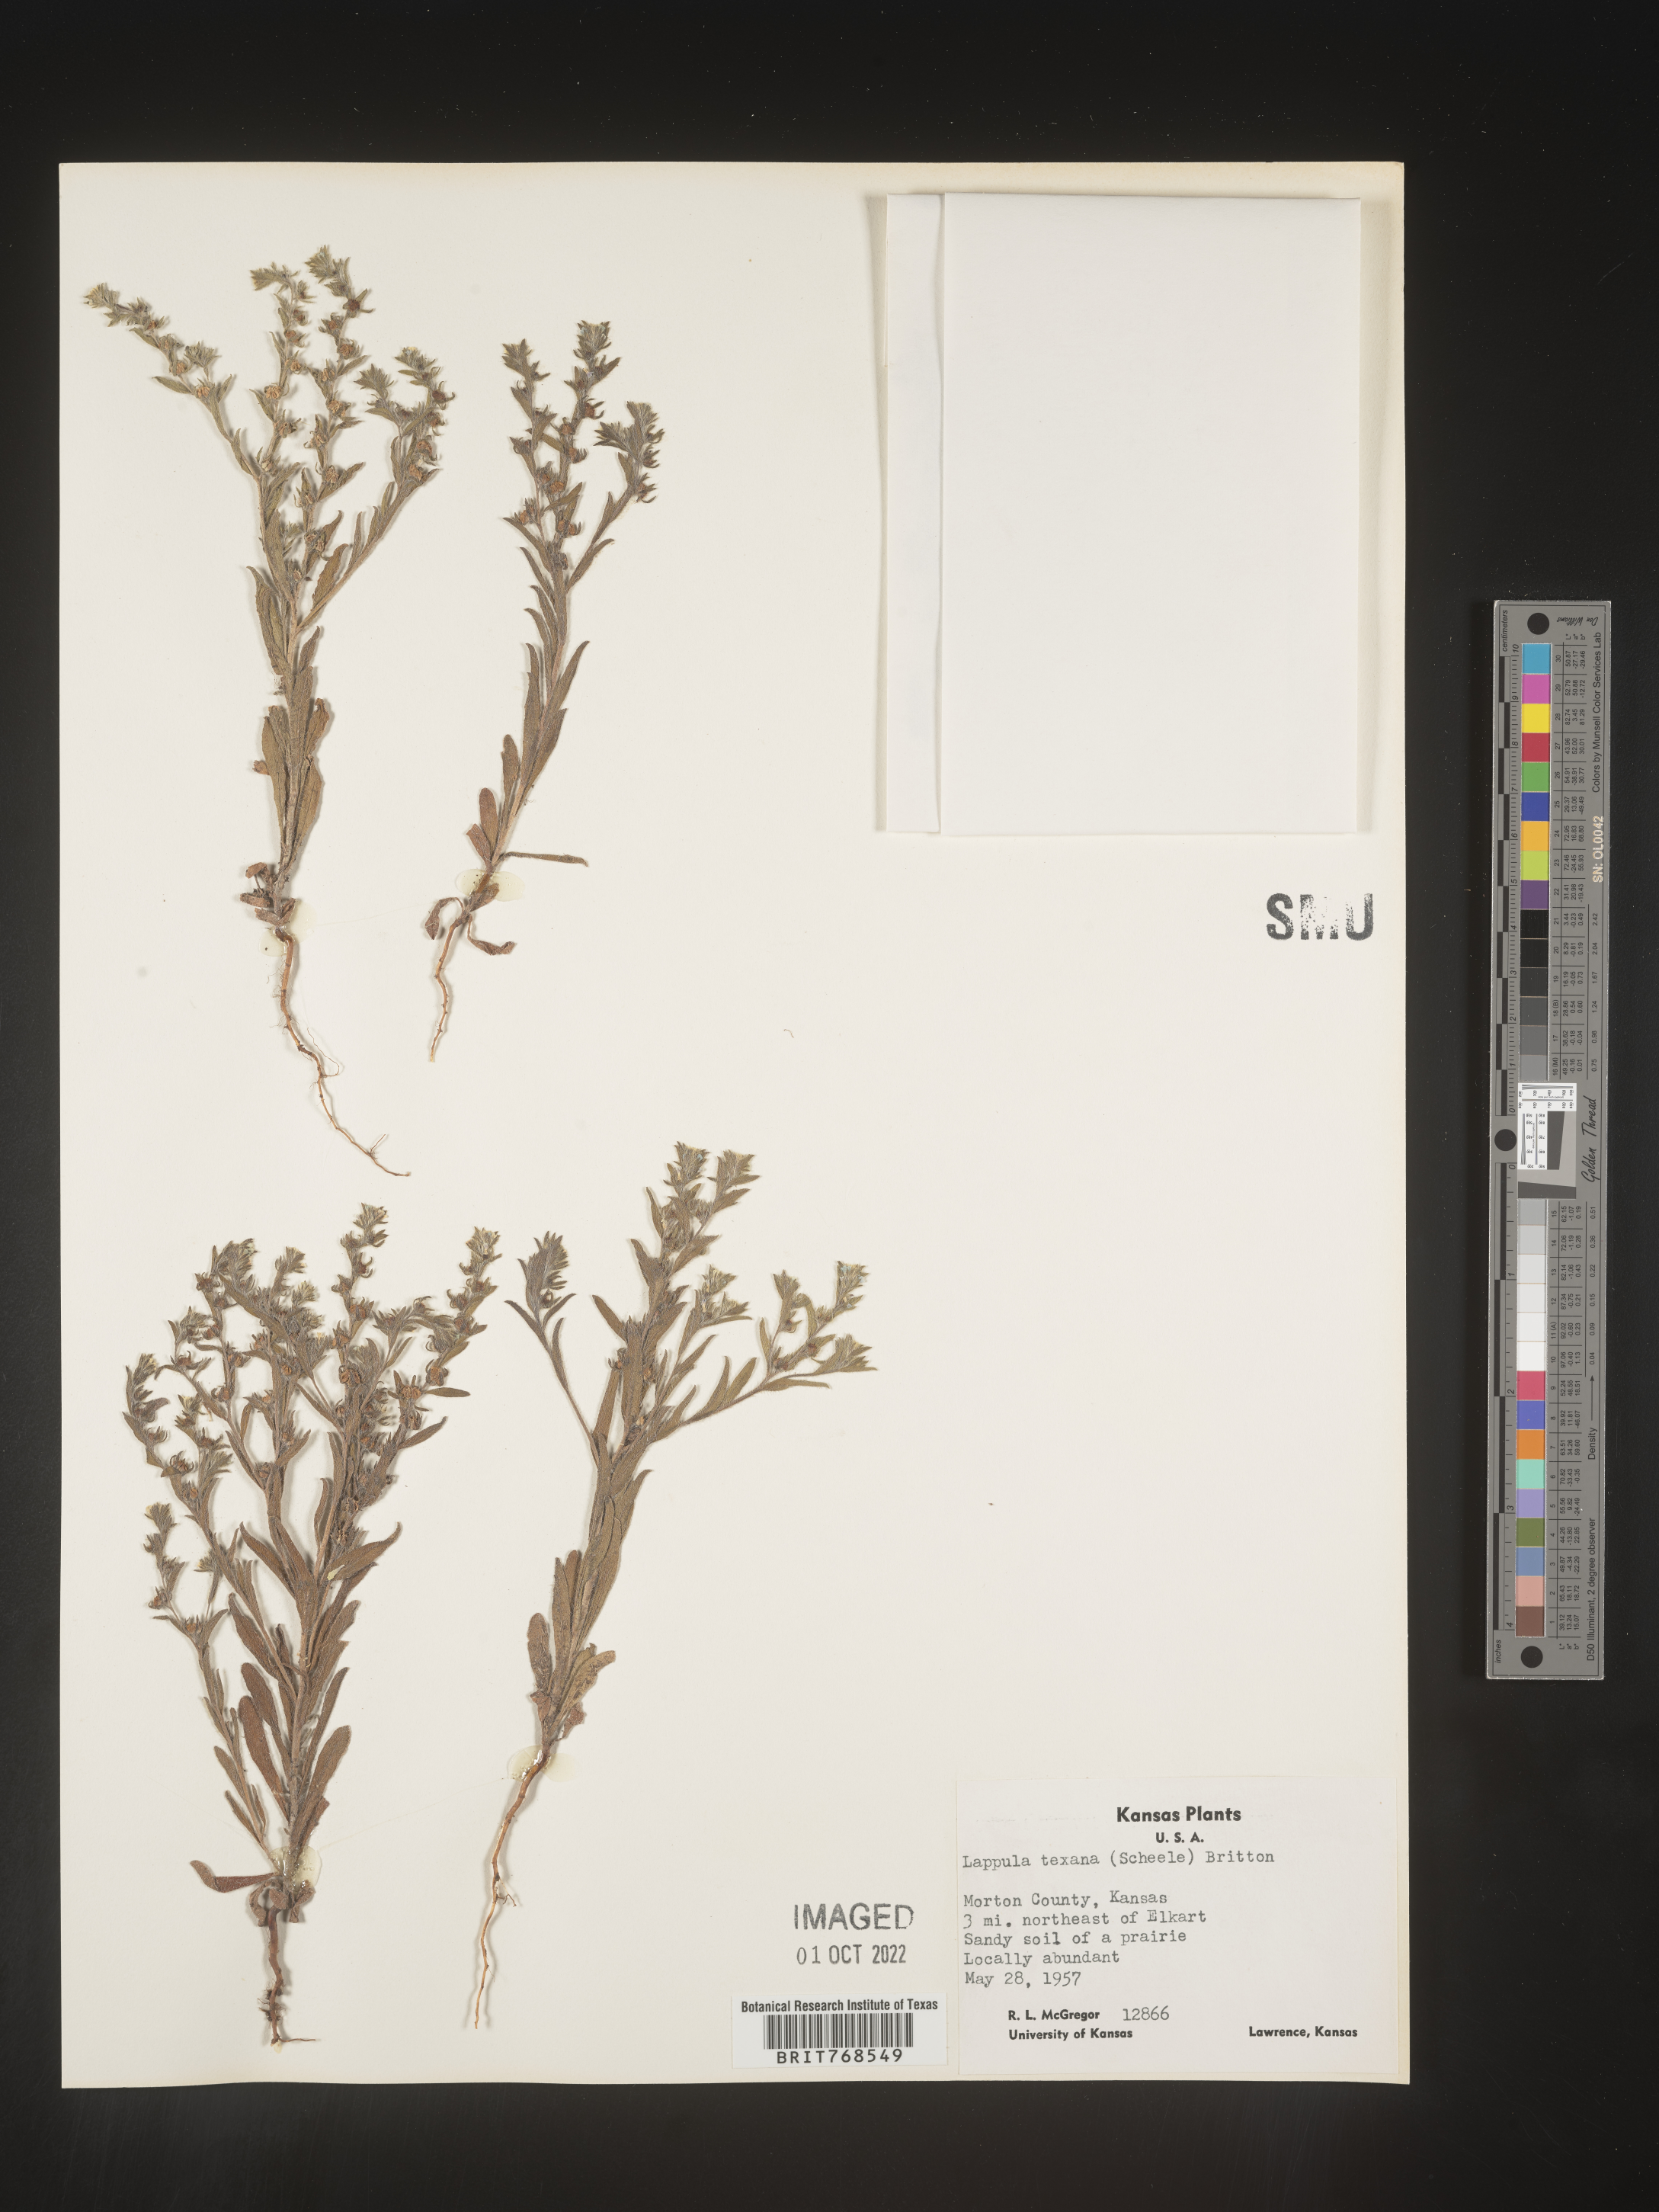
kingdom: Plantae
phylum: Tracheophyta
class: Magnoliopsida
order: Boraginales
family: Boraginaceae
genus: Lappula
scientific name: Lappula
